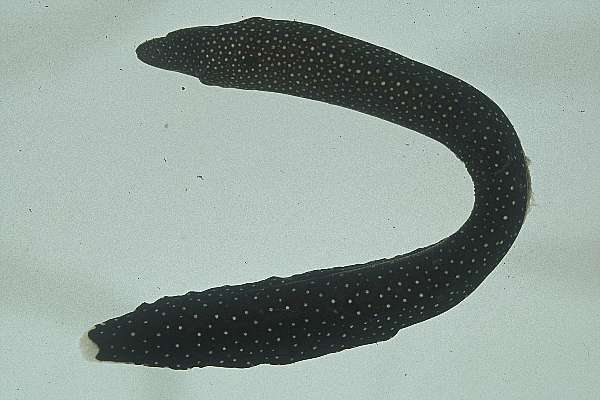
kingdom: Animalia
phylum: Chordata
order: Anguilliformes
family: Muraenidae
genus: Gymnothorax
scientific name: Gymnothorax meleagris
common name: Guineafowl moray
